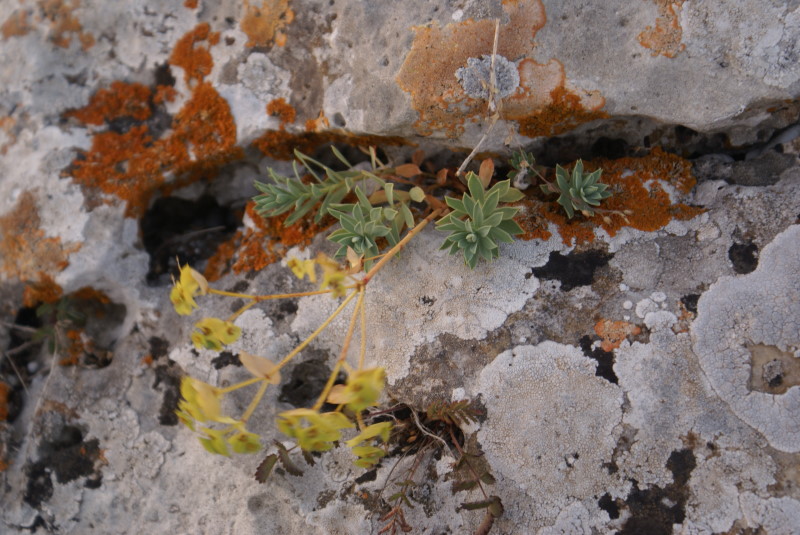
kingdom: Plantae
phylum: Tracheophyta
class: Magnoliopsida
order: Malpighiales
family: Euphorbiaceae
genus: Euphorbia
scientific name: Euphorbia petrophila
